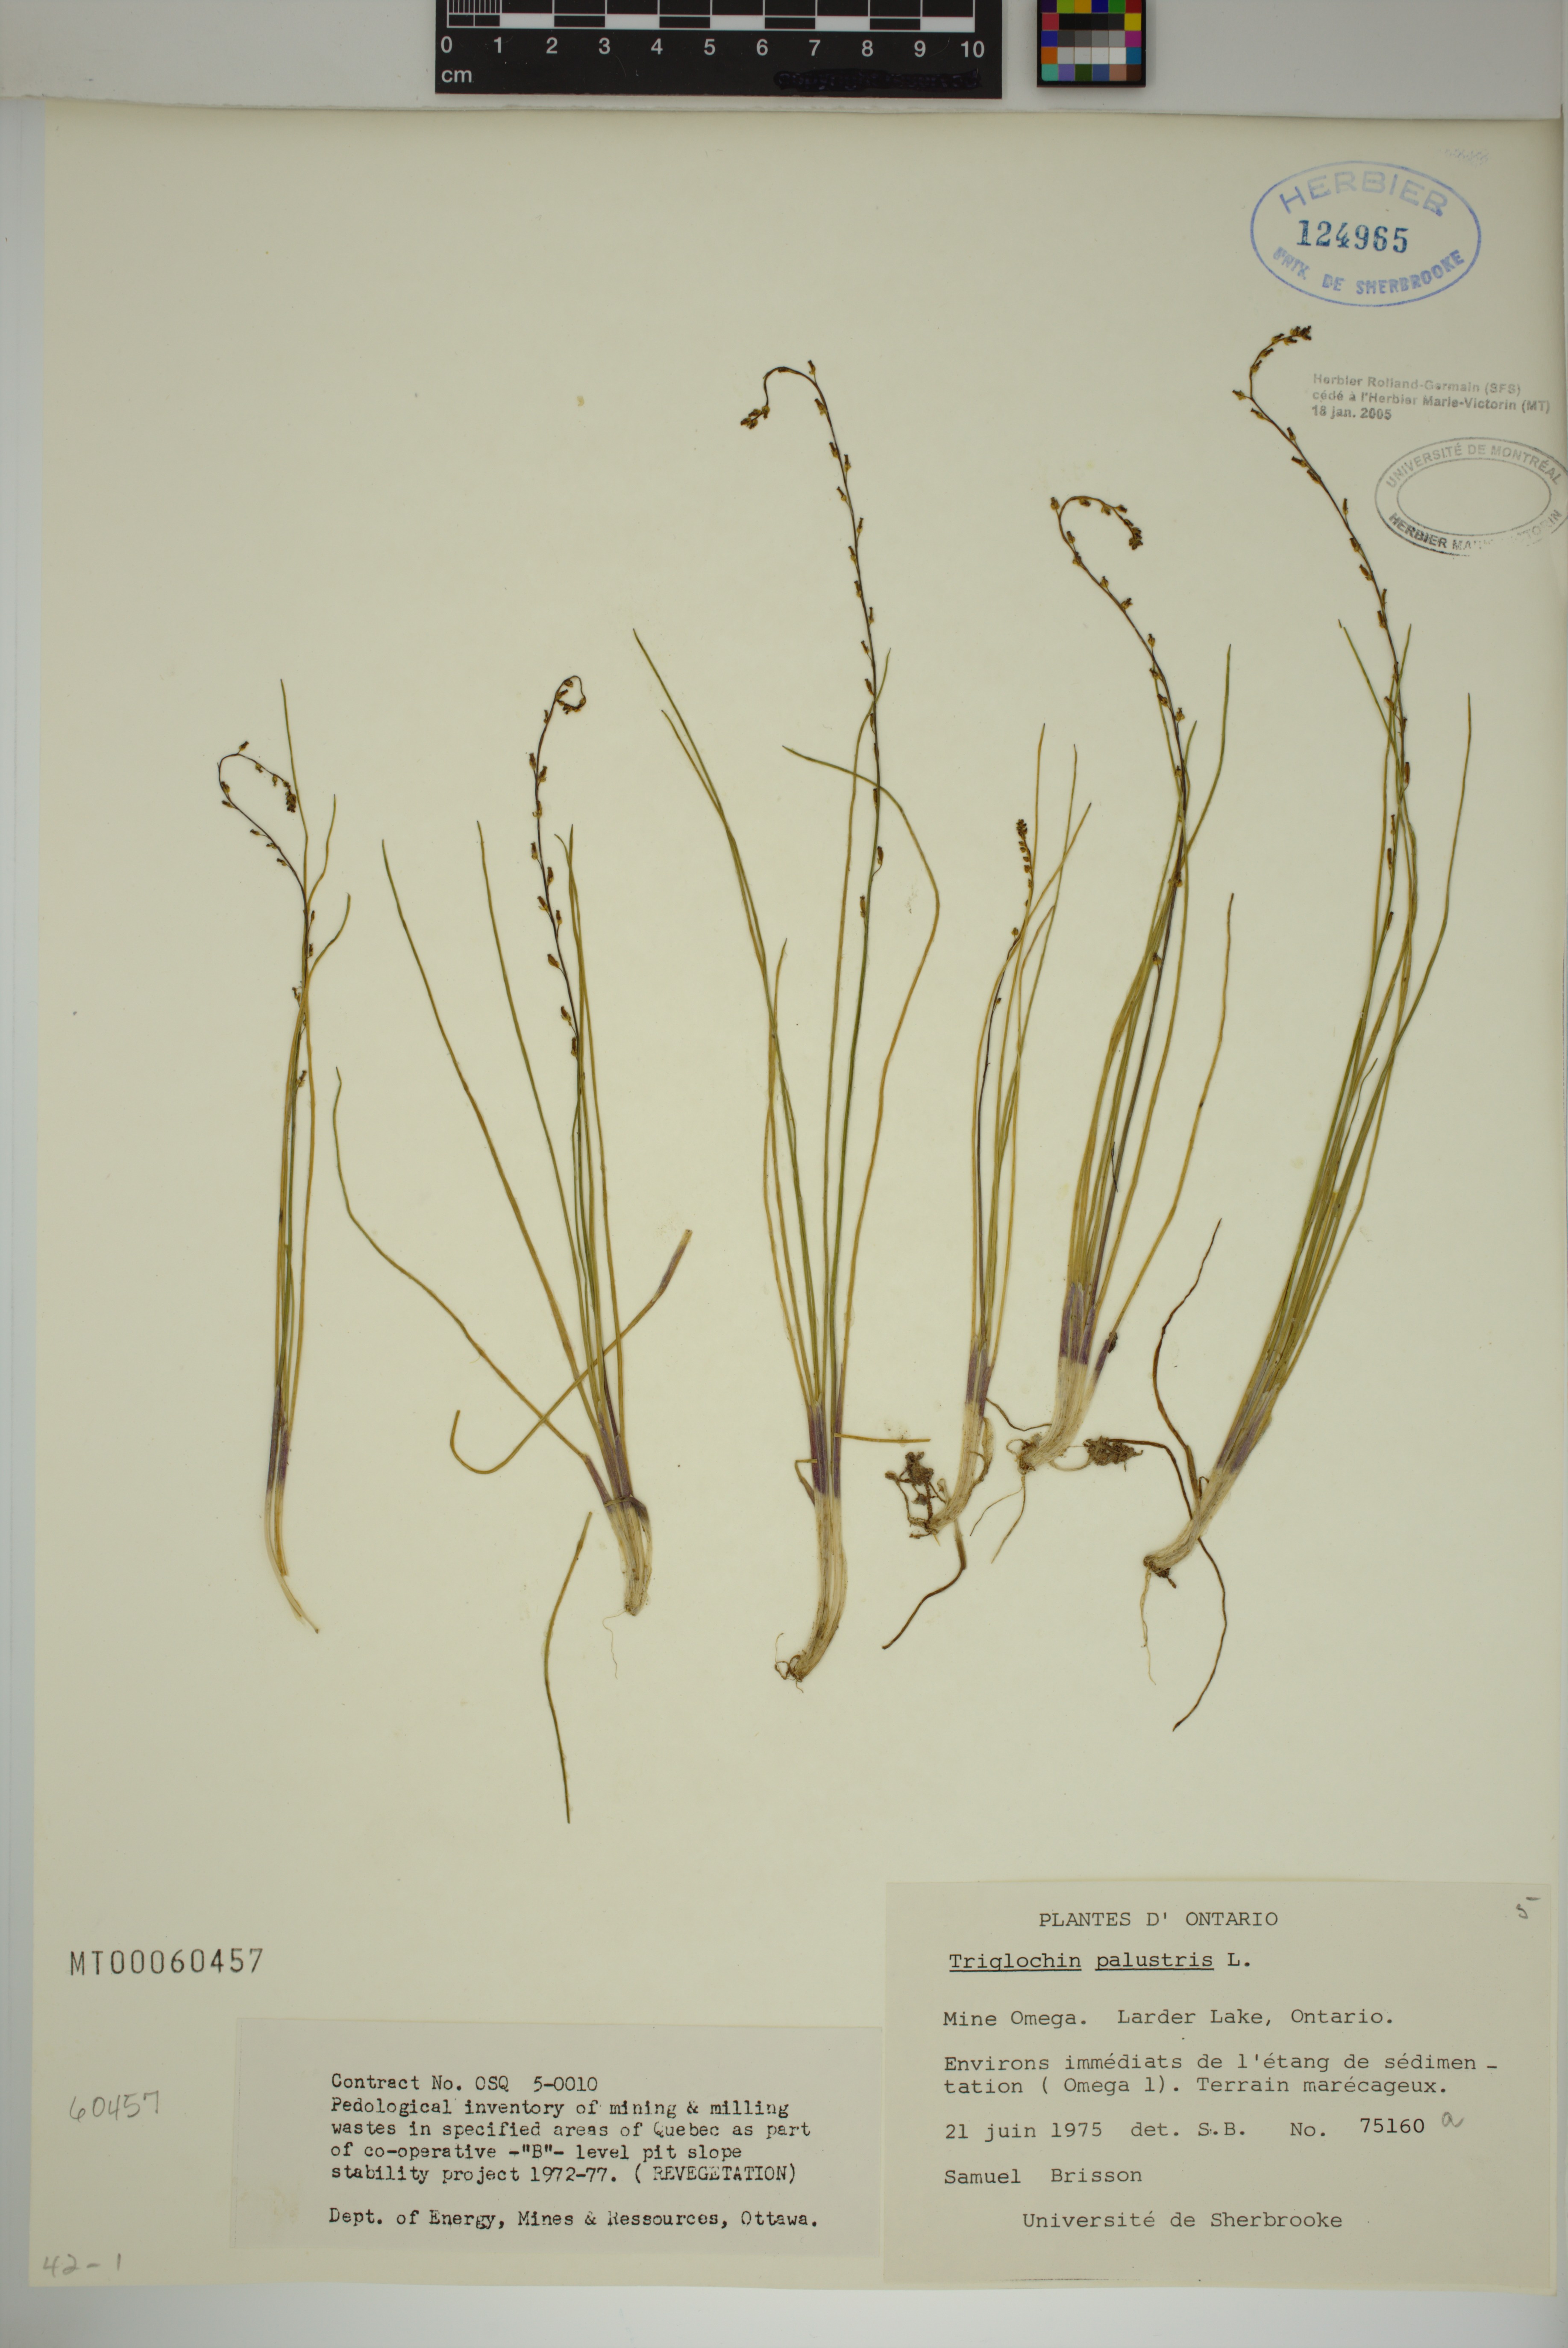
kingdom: Plantae
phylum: Tracheophyta
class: Liliopsida
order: Alismatales
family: Juncaginaceae
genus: Triglochin
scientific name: Triglochin palustris
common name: Marsh arrowgrass
